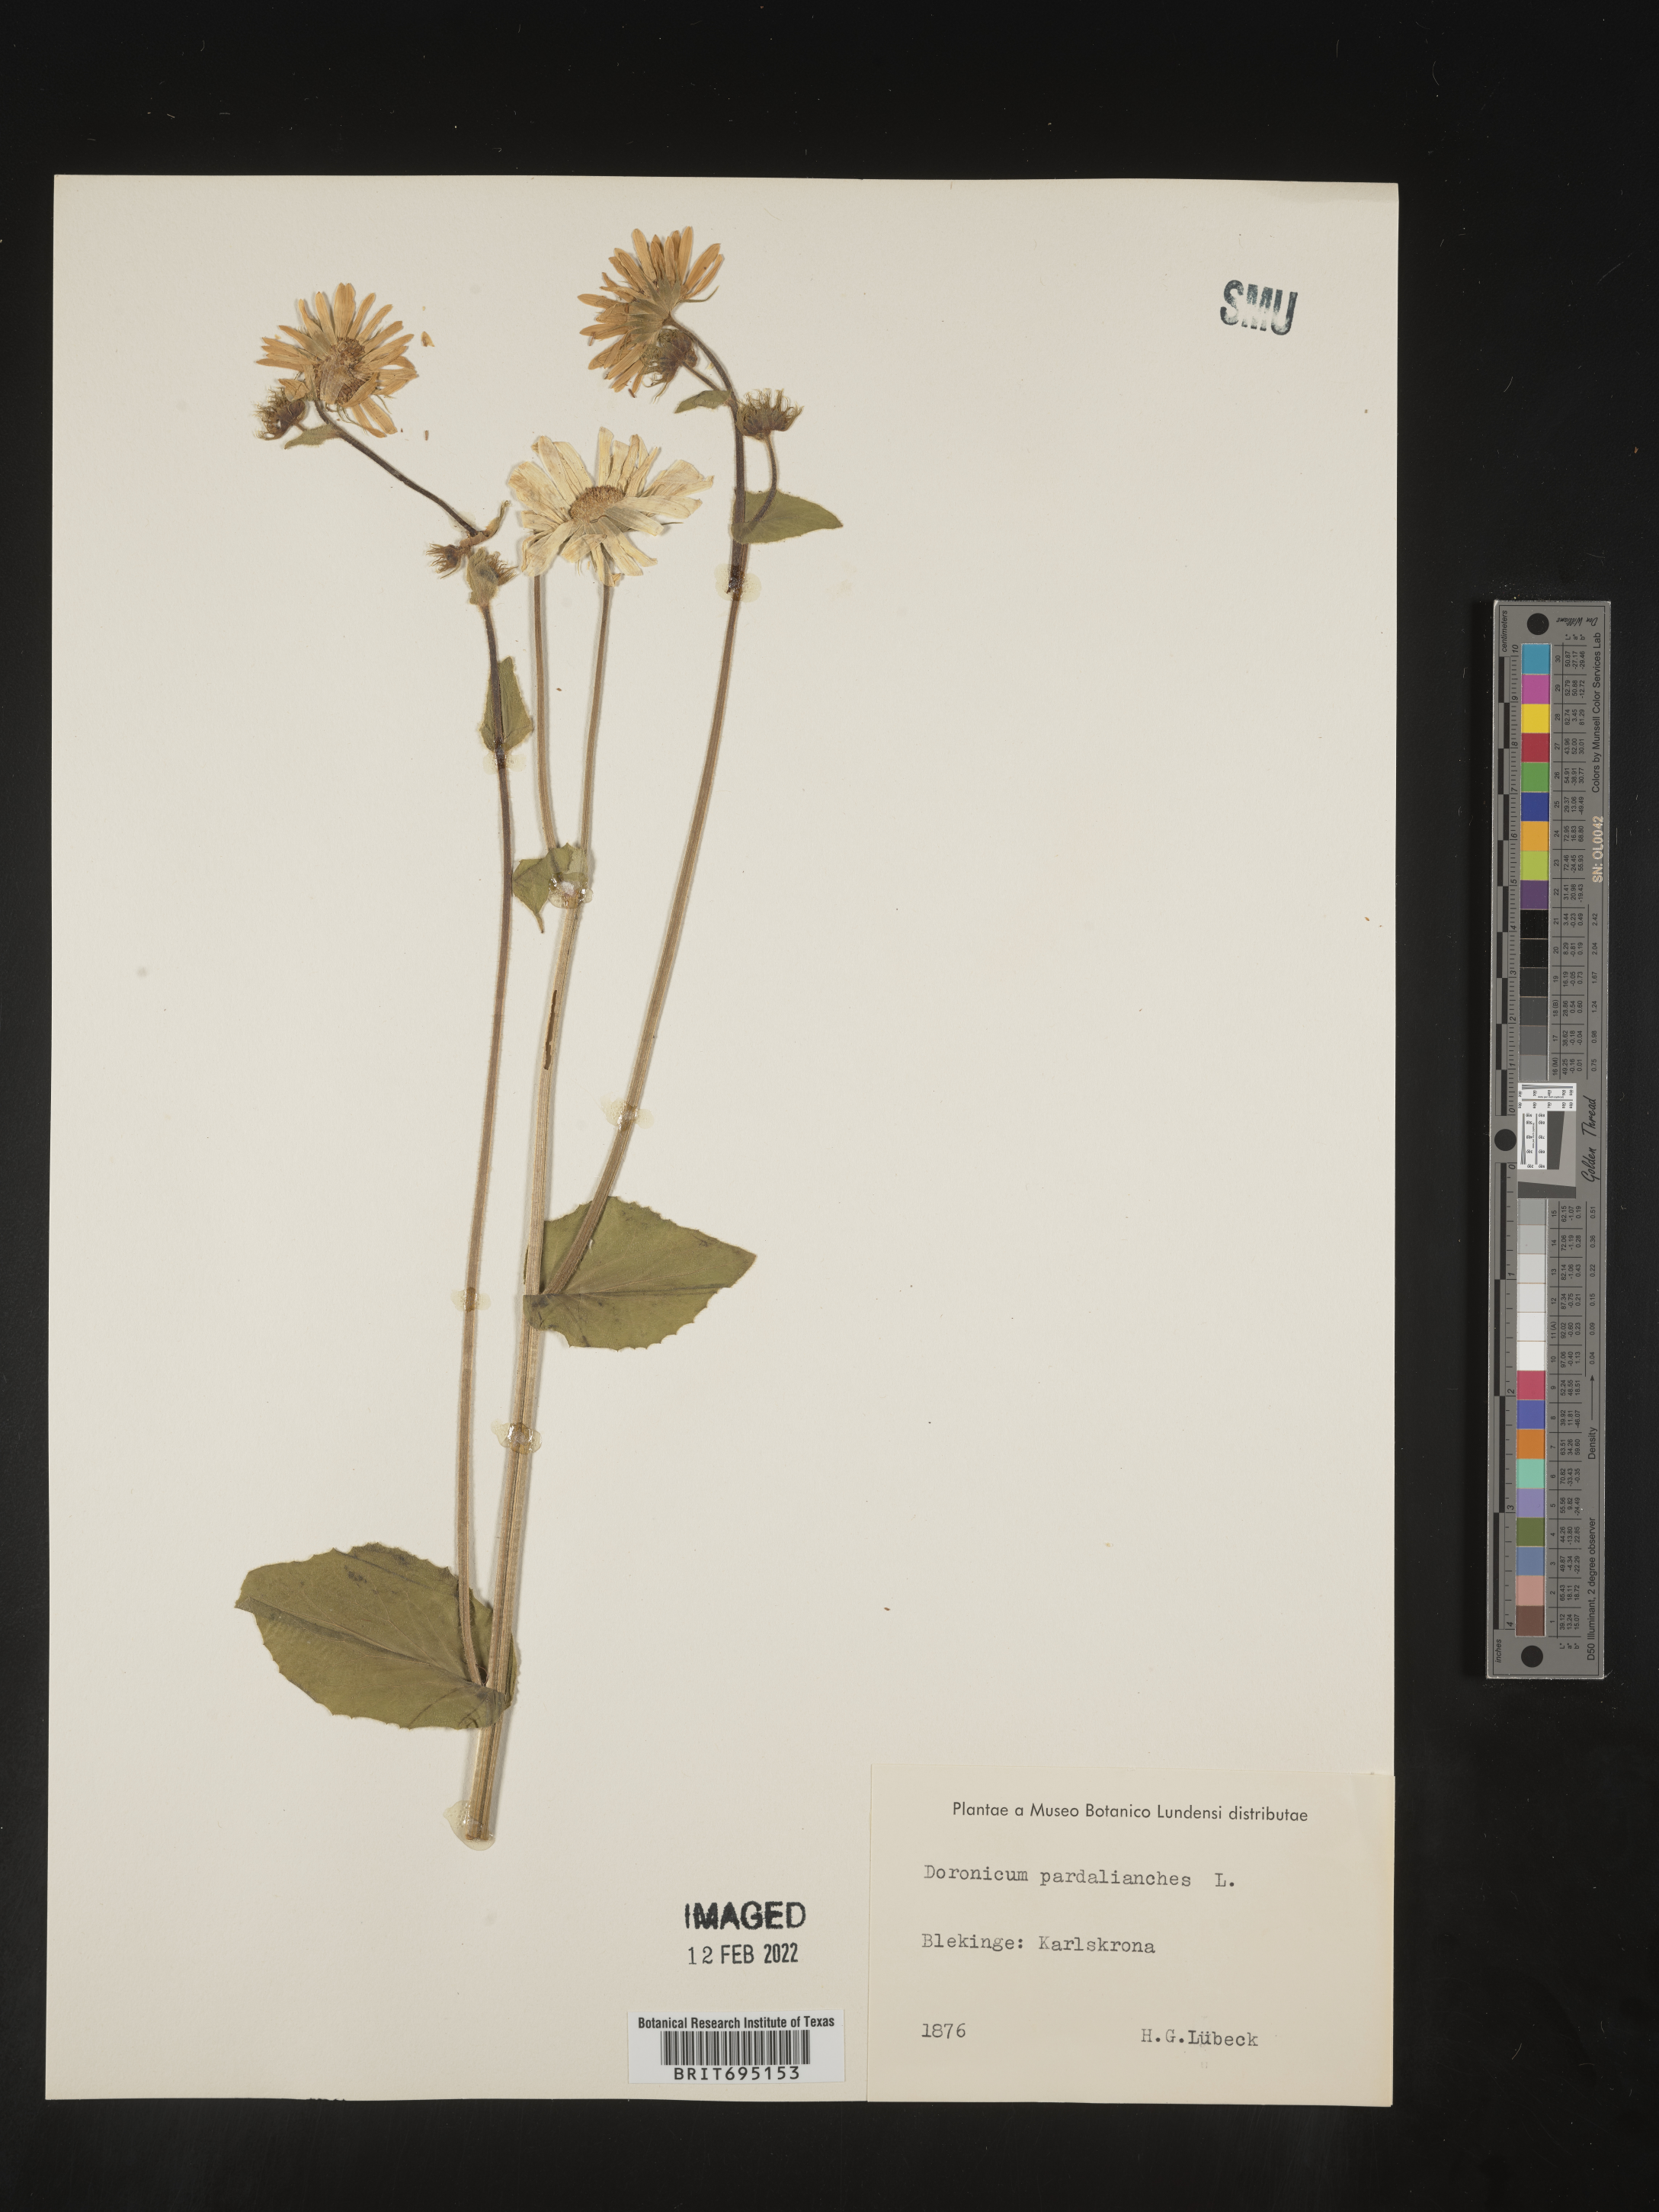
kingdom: Plantae
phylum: Tracheophyta
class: Magnoliopsida
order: Asterales
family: Asteraceae
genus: Doronicum
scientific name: Doronicum
